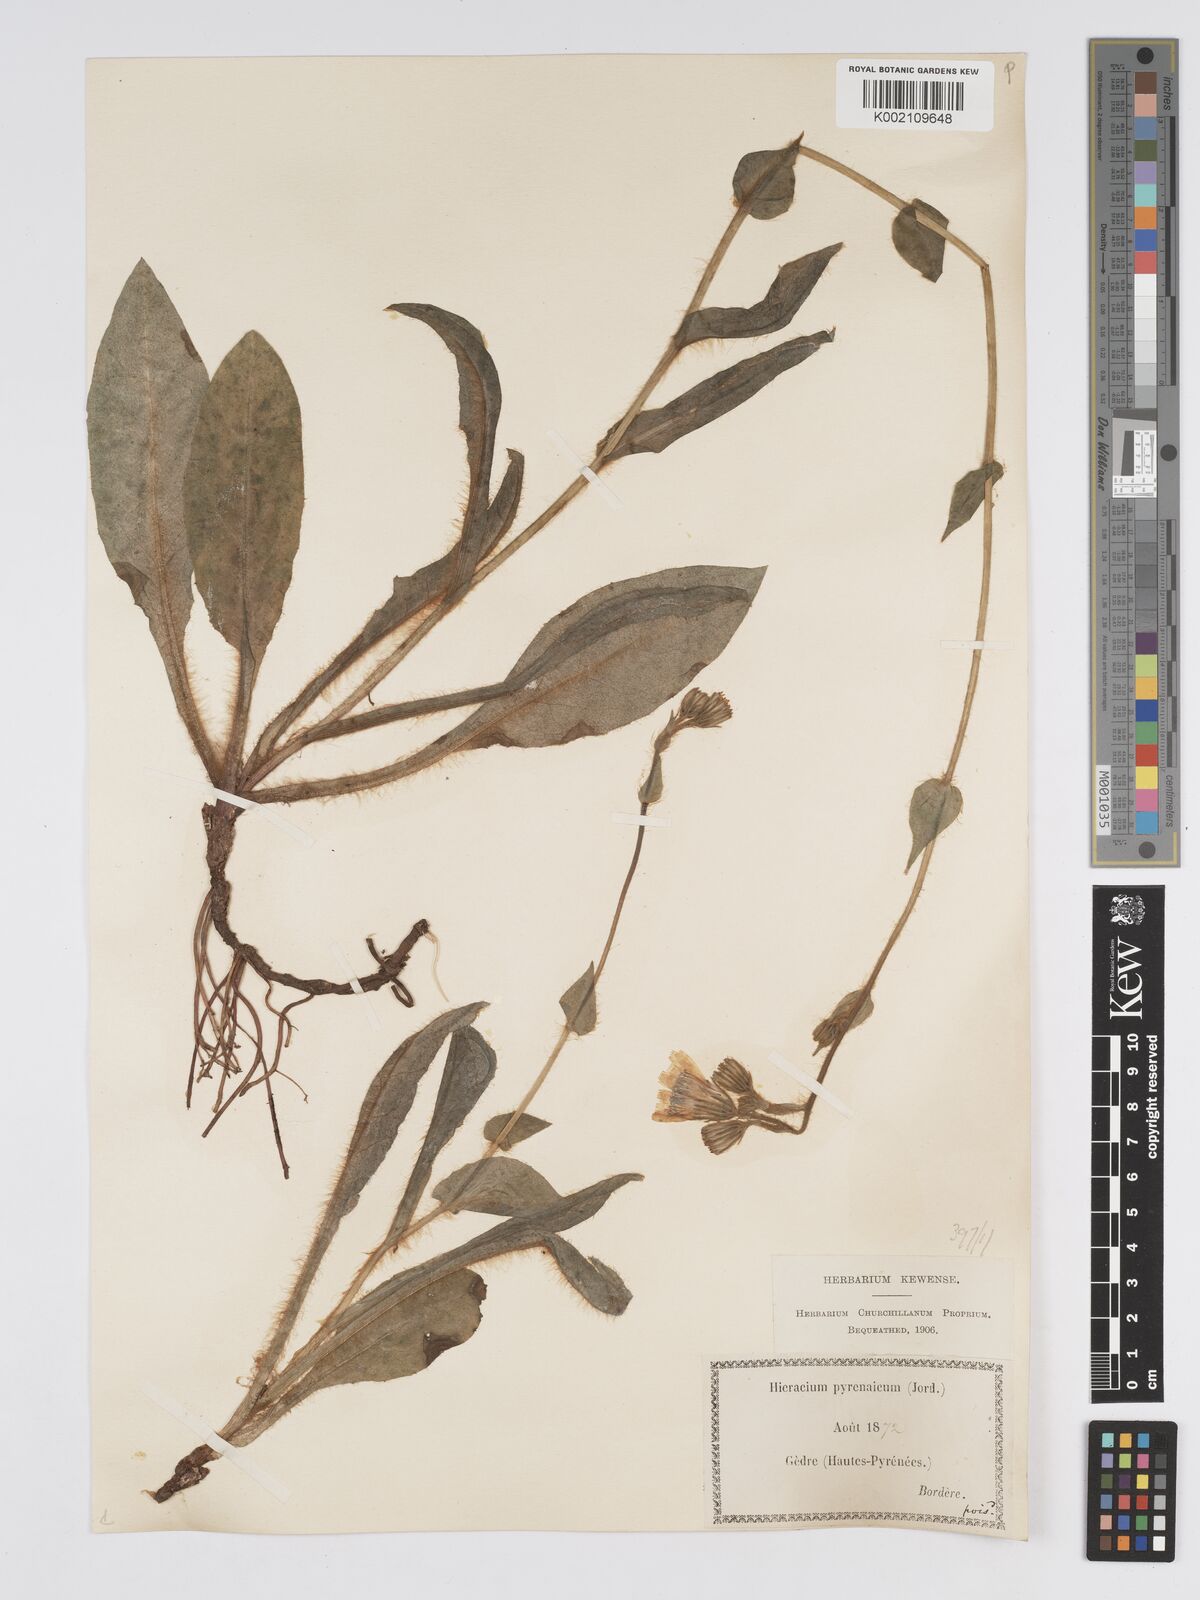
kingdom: Plantae
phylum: Tracheophyta
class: Magnoliopsida
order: Asterales
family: Asteraceae
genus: Hieracium
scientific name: Hieracium nobile
